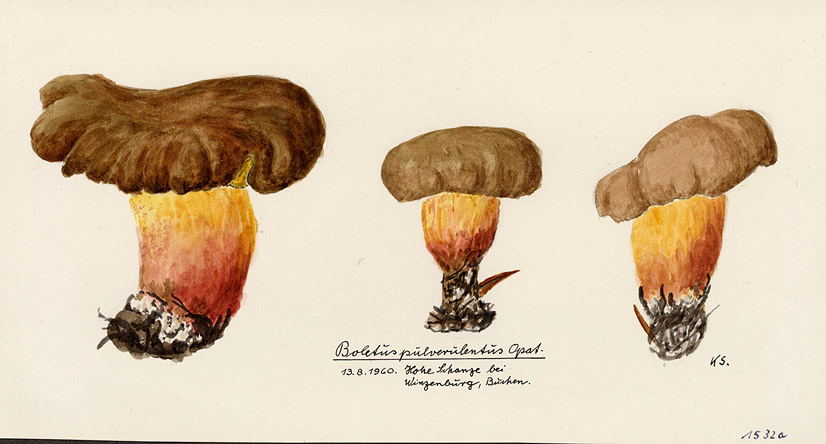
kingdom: Fungi
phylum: Basidiomycota
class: Agaricomycetes
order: Boletales
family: Boletaceae
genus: Cyanoboletus
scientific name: Cyanoboletus pulverulentus
